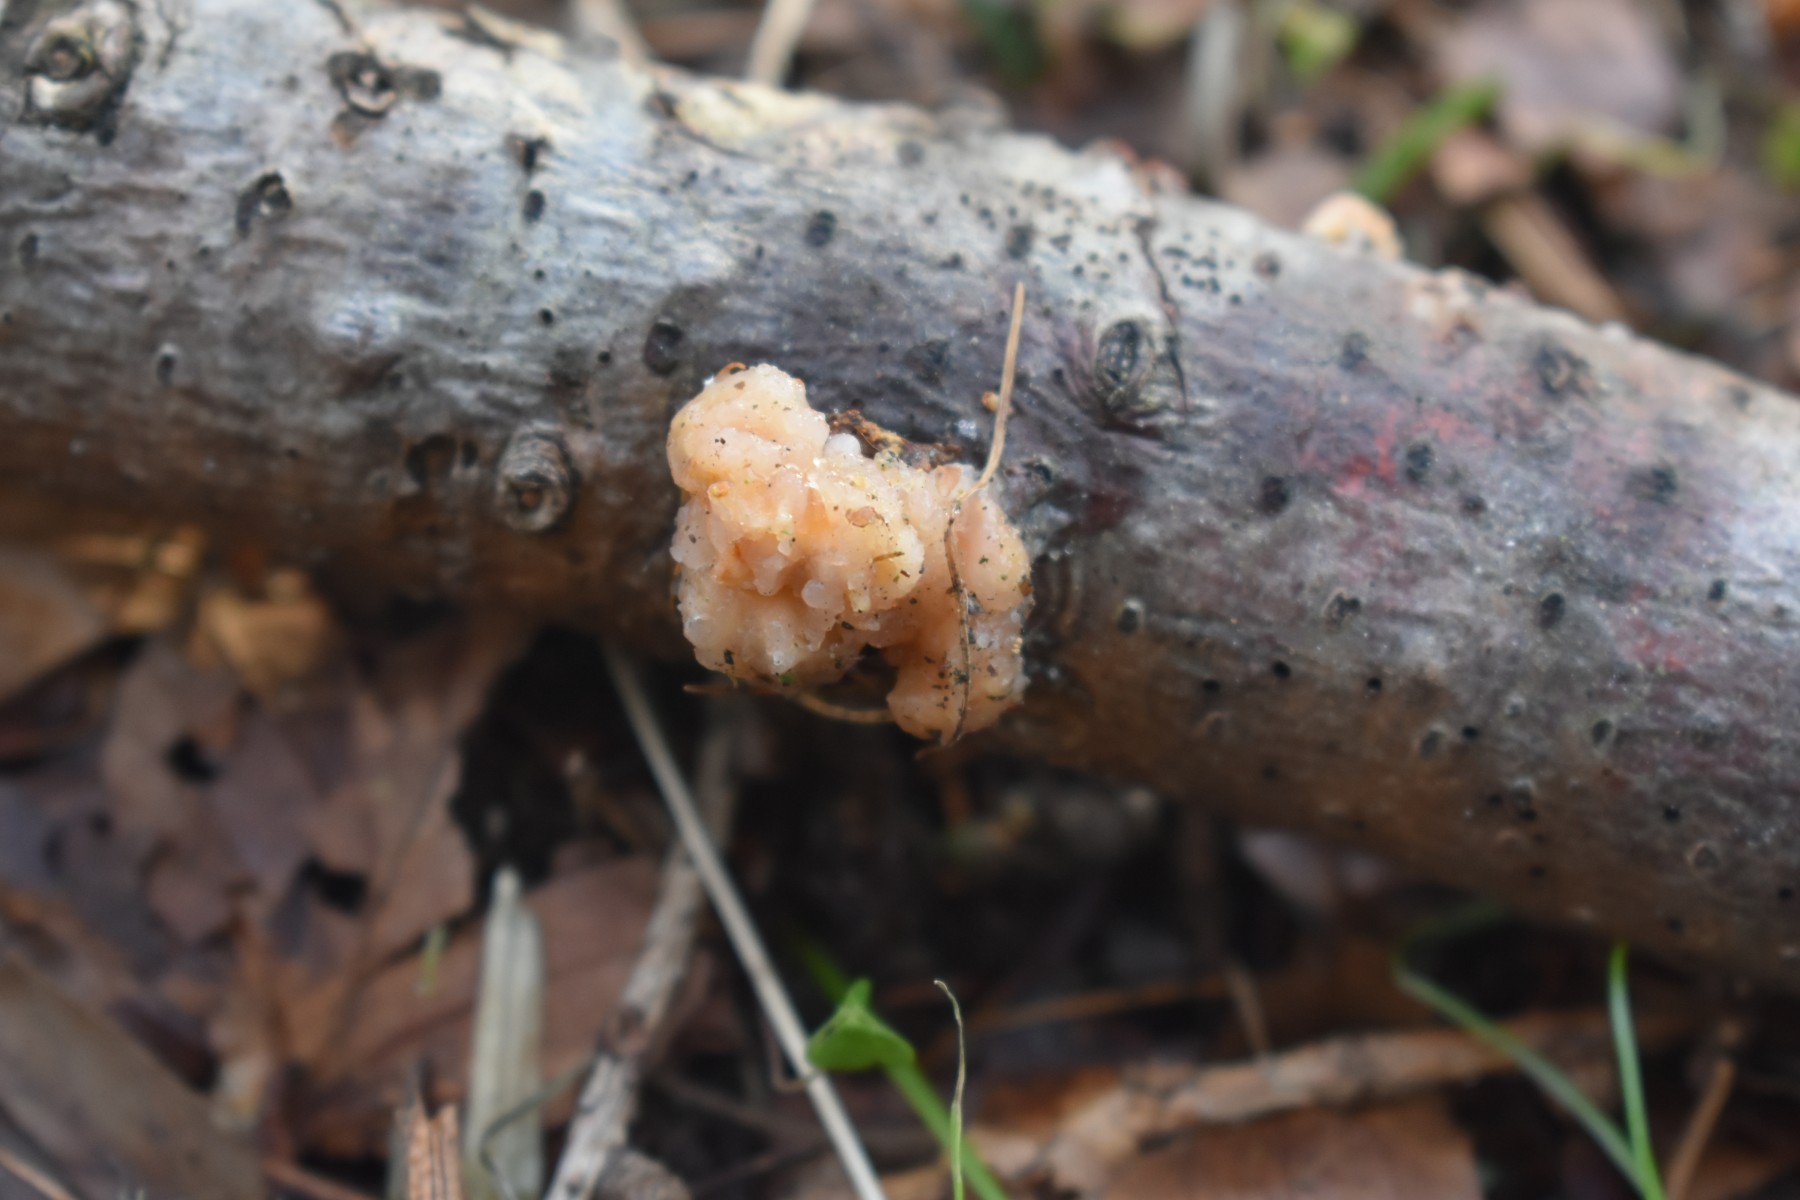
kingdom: Fungi
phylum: Basidiomycota
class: Tremellomycetes
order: Tremellales
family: Naemateliaceae
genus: Naematelia
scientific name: Naematelia encephala
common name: fyrre-bævresvamp
